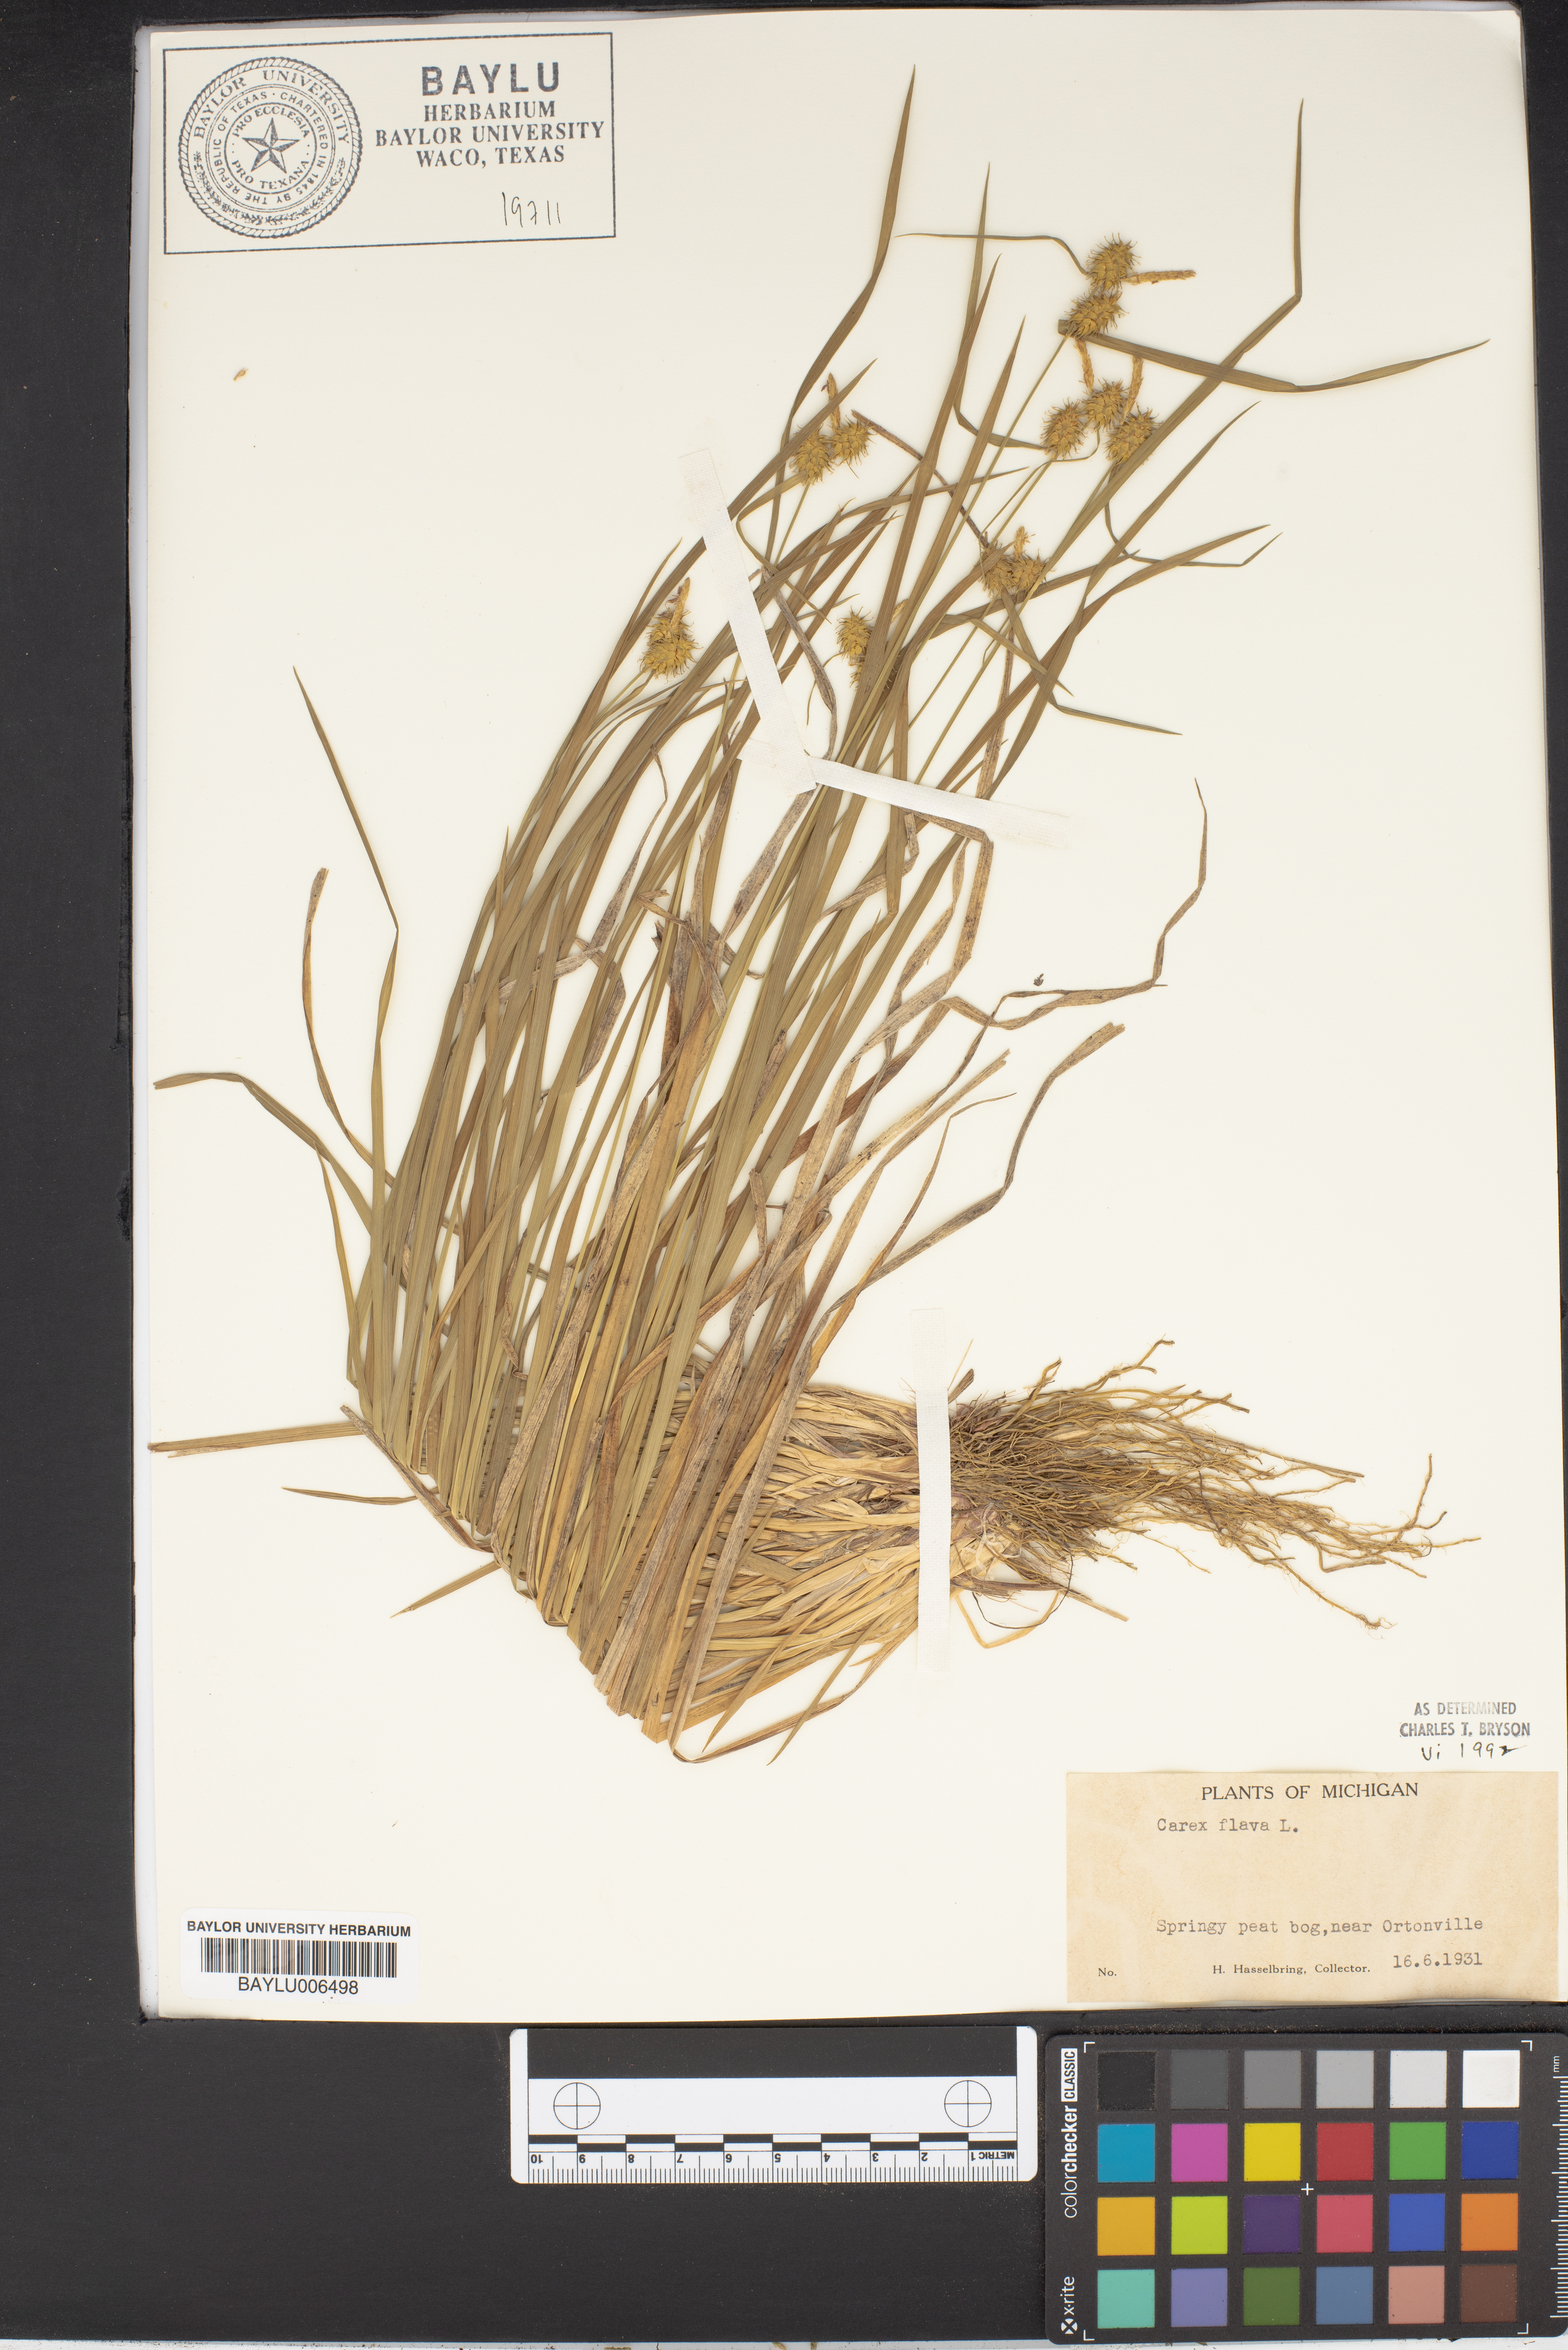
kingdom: Plantae
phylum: Tracheophyta
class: Liliopsida
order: Poales
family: Cyperaceae
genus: Carex
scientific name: Carex flava
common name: Large yellow-sedge
